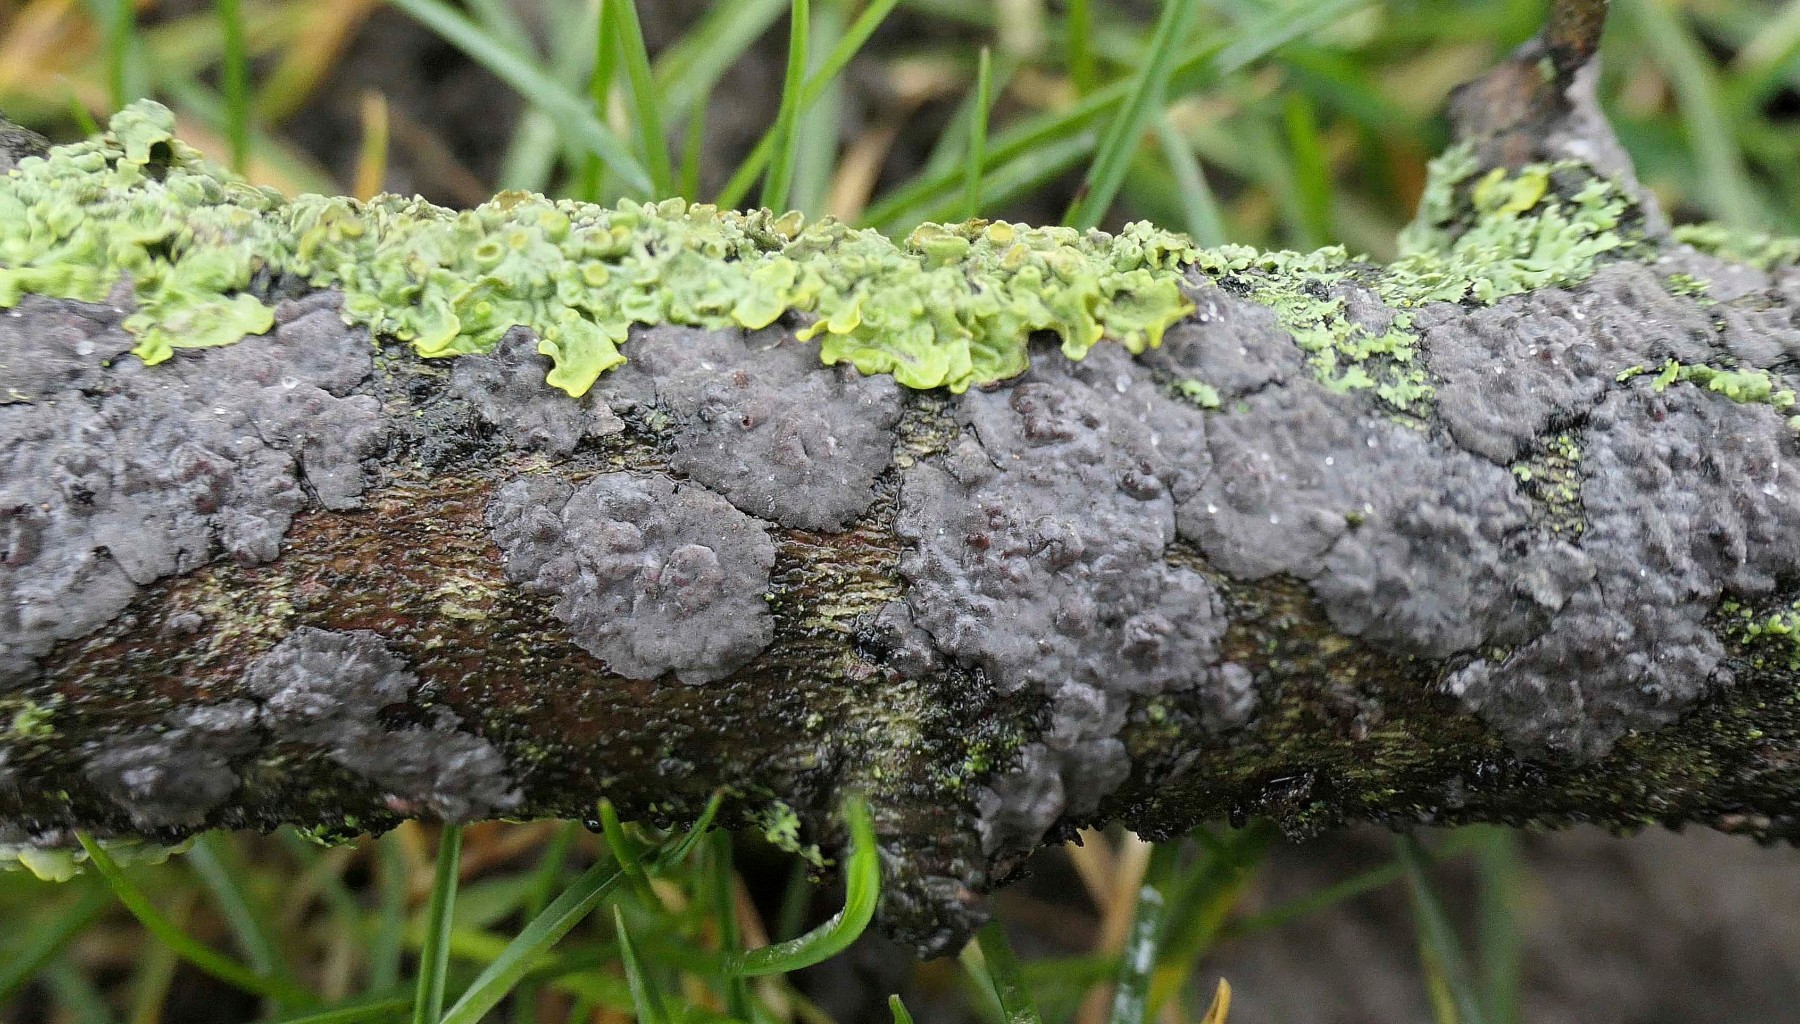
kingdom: Fungi
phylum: Basidiomycota
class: Agaricomycetes
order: Russulales
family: Peniophoraceae
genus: Peniophora
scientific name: Peniophora rufomarginata
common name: linde-voksskind
